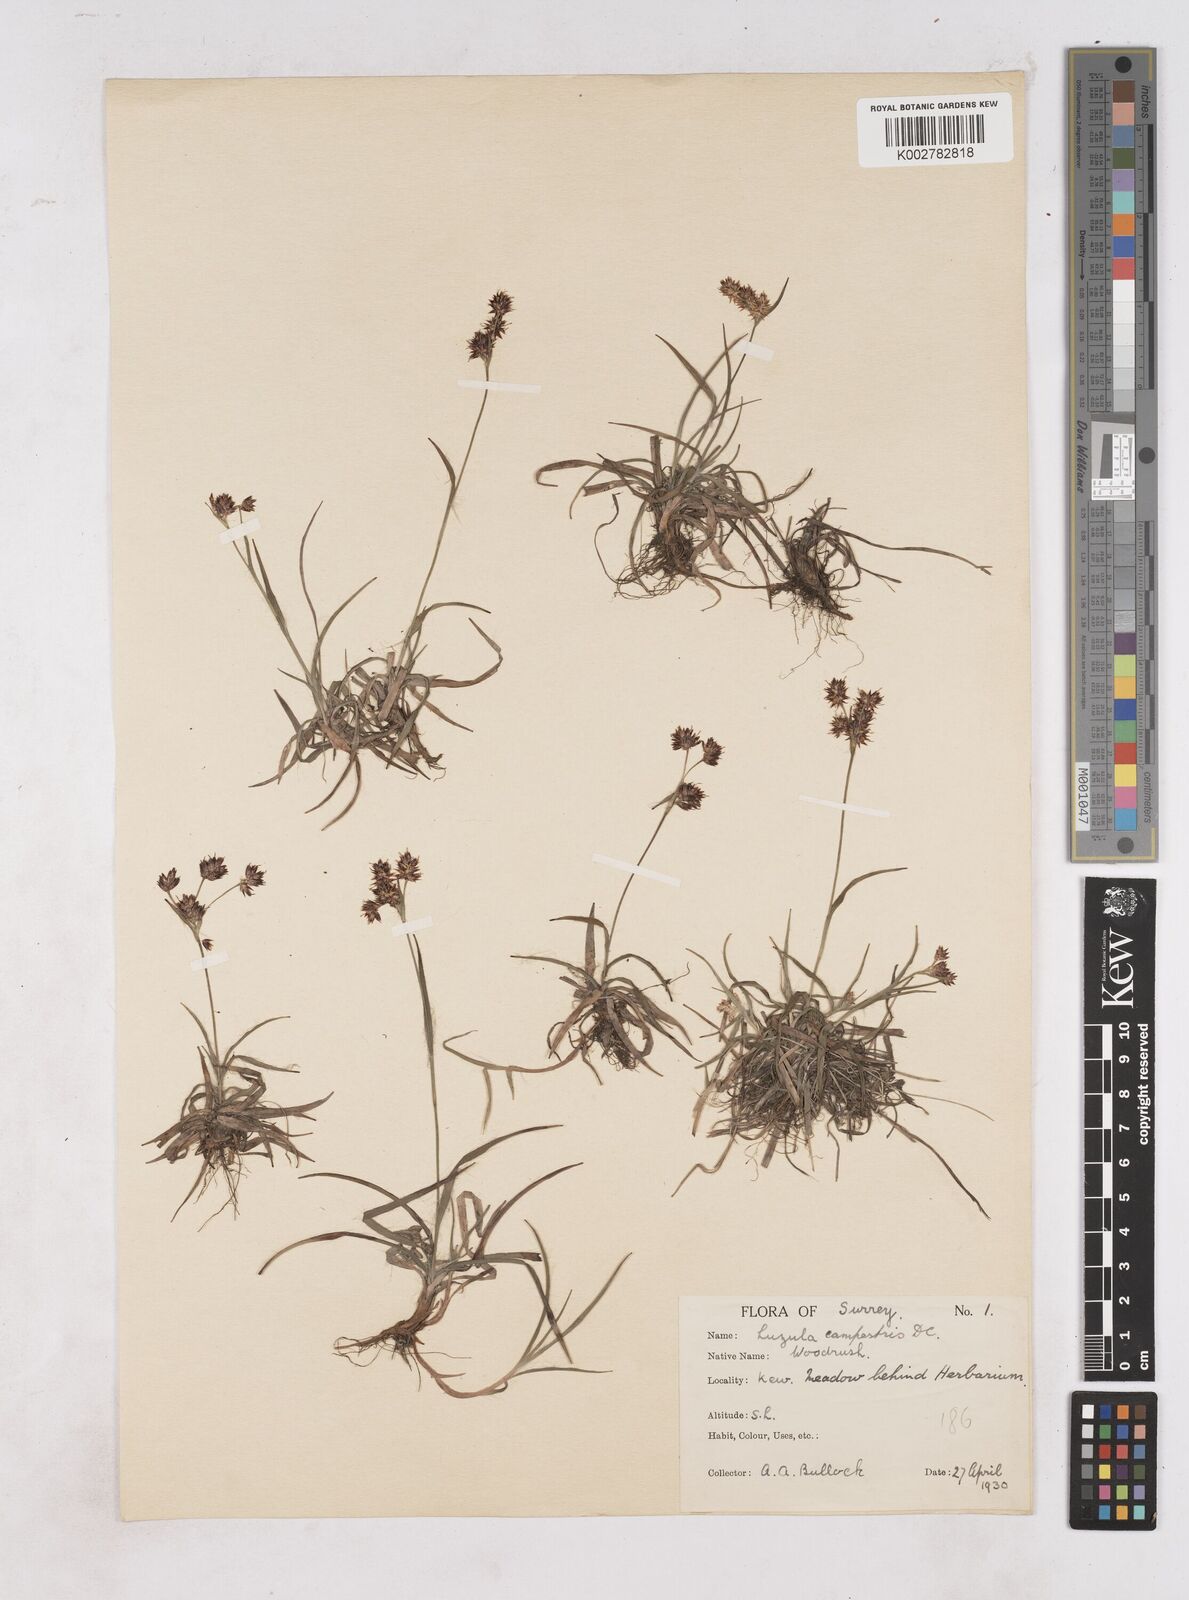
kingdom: Plantae
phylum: Tracheophyta
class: Liliopsida
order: Poales
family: Juncaceae
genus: Luzula
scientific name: Luzula campestris
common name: Field wood-rush
